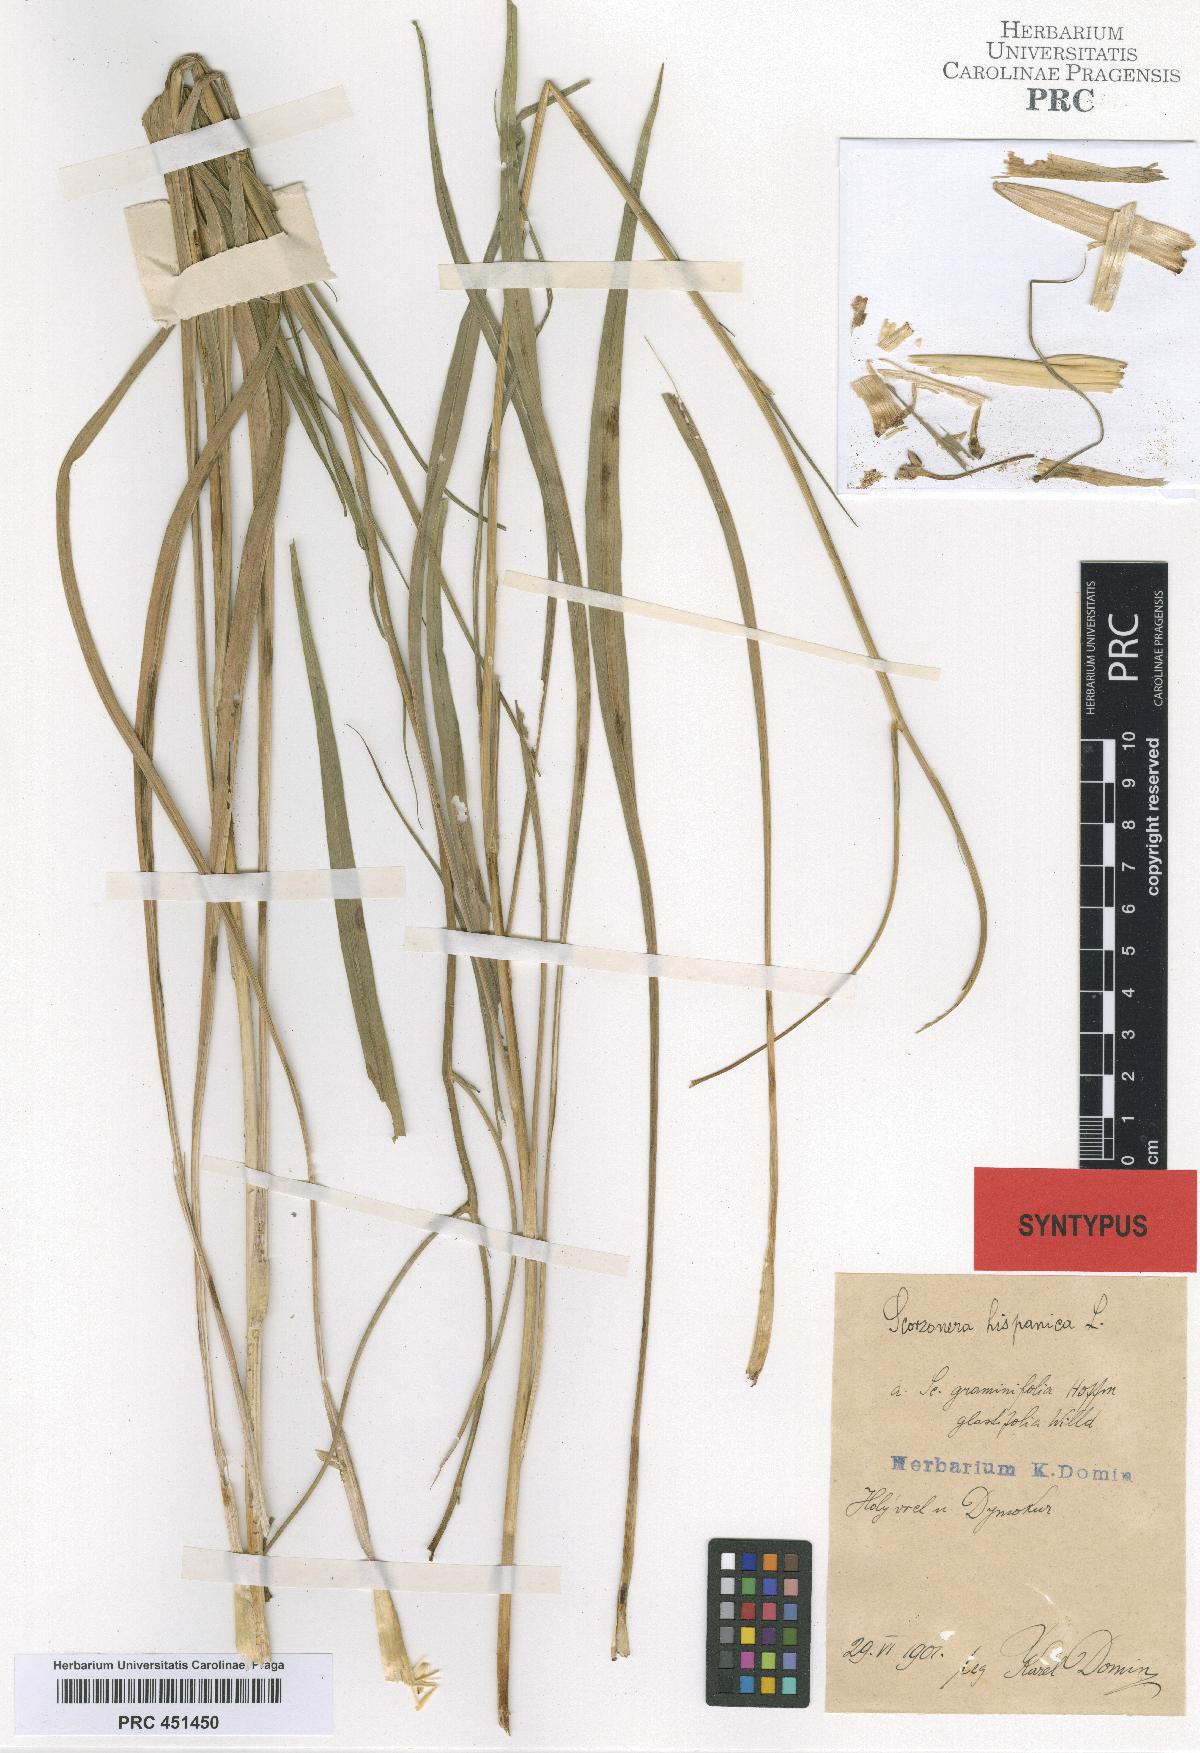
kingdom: Plantae
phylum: Tracheophyta
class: Magnoliopsida
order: Asterales
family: Asteraceae
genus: Pseudopodospermum
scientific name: Pseudopodospermum hispanicum
